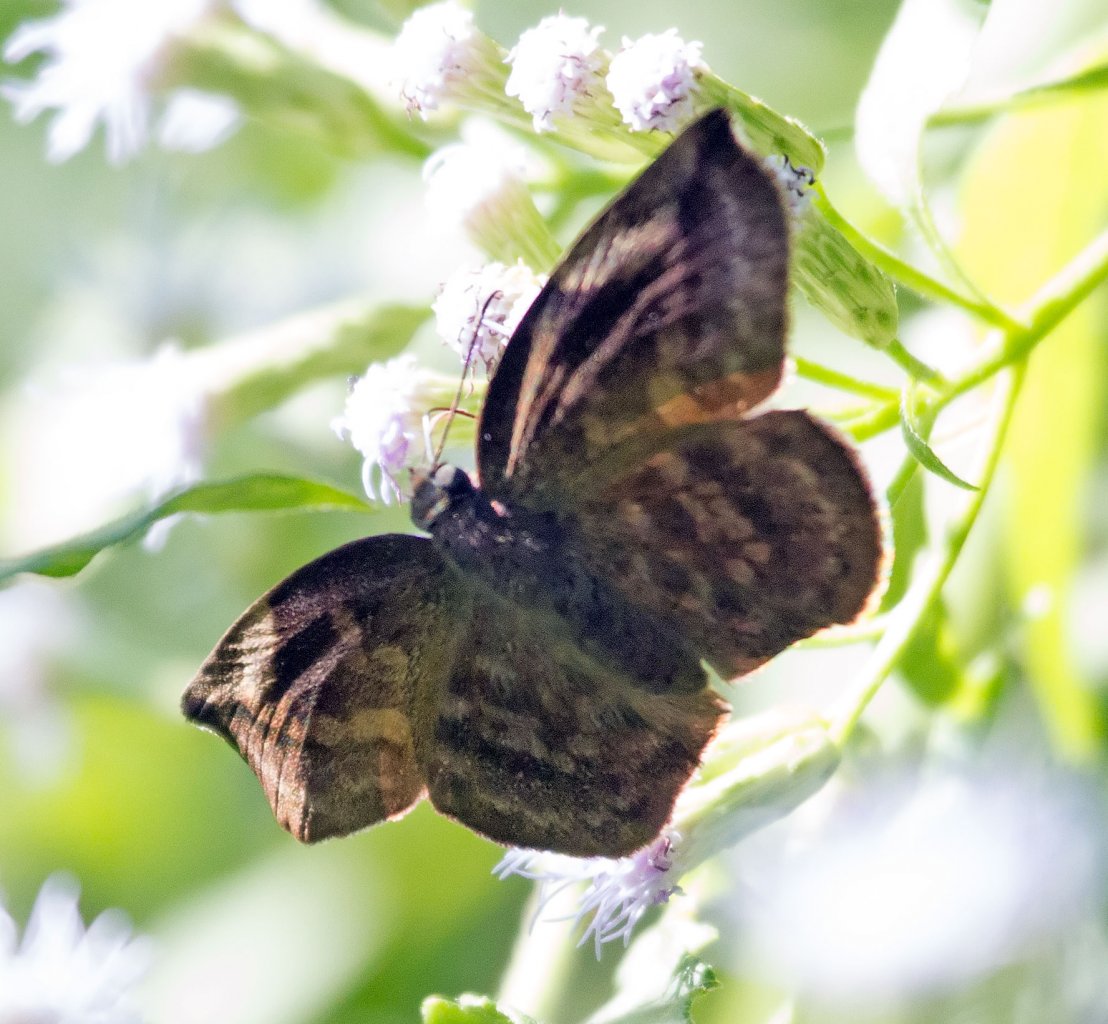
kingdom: Animalia
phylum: Arthropoda
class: Insecta
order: Lepidoptera
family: Hesperiidae
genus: Achlyodes
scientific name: Achlyodes thraso
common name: Sickle-winged Skipper
